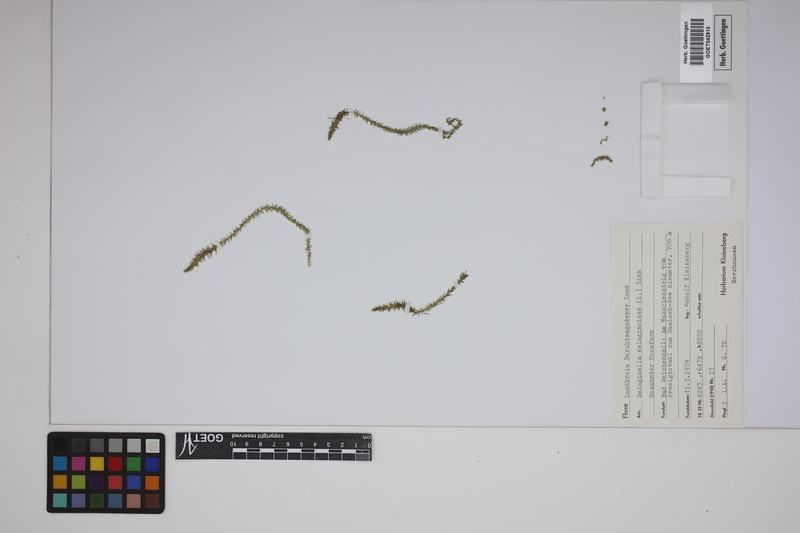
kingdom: Plantae
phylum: Tracheophyta
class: Lycopodiopsida
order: Selaginellales
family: Selaginellaceae
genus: Selaginella
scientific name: Selaginella selaginoides
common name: Prickly mountain-moss
